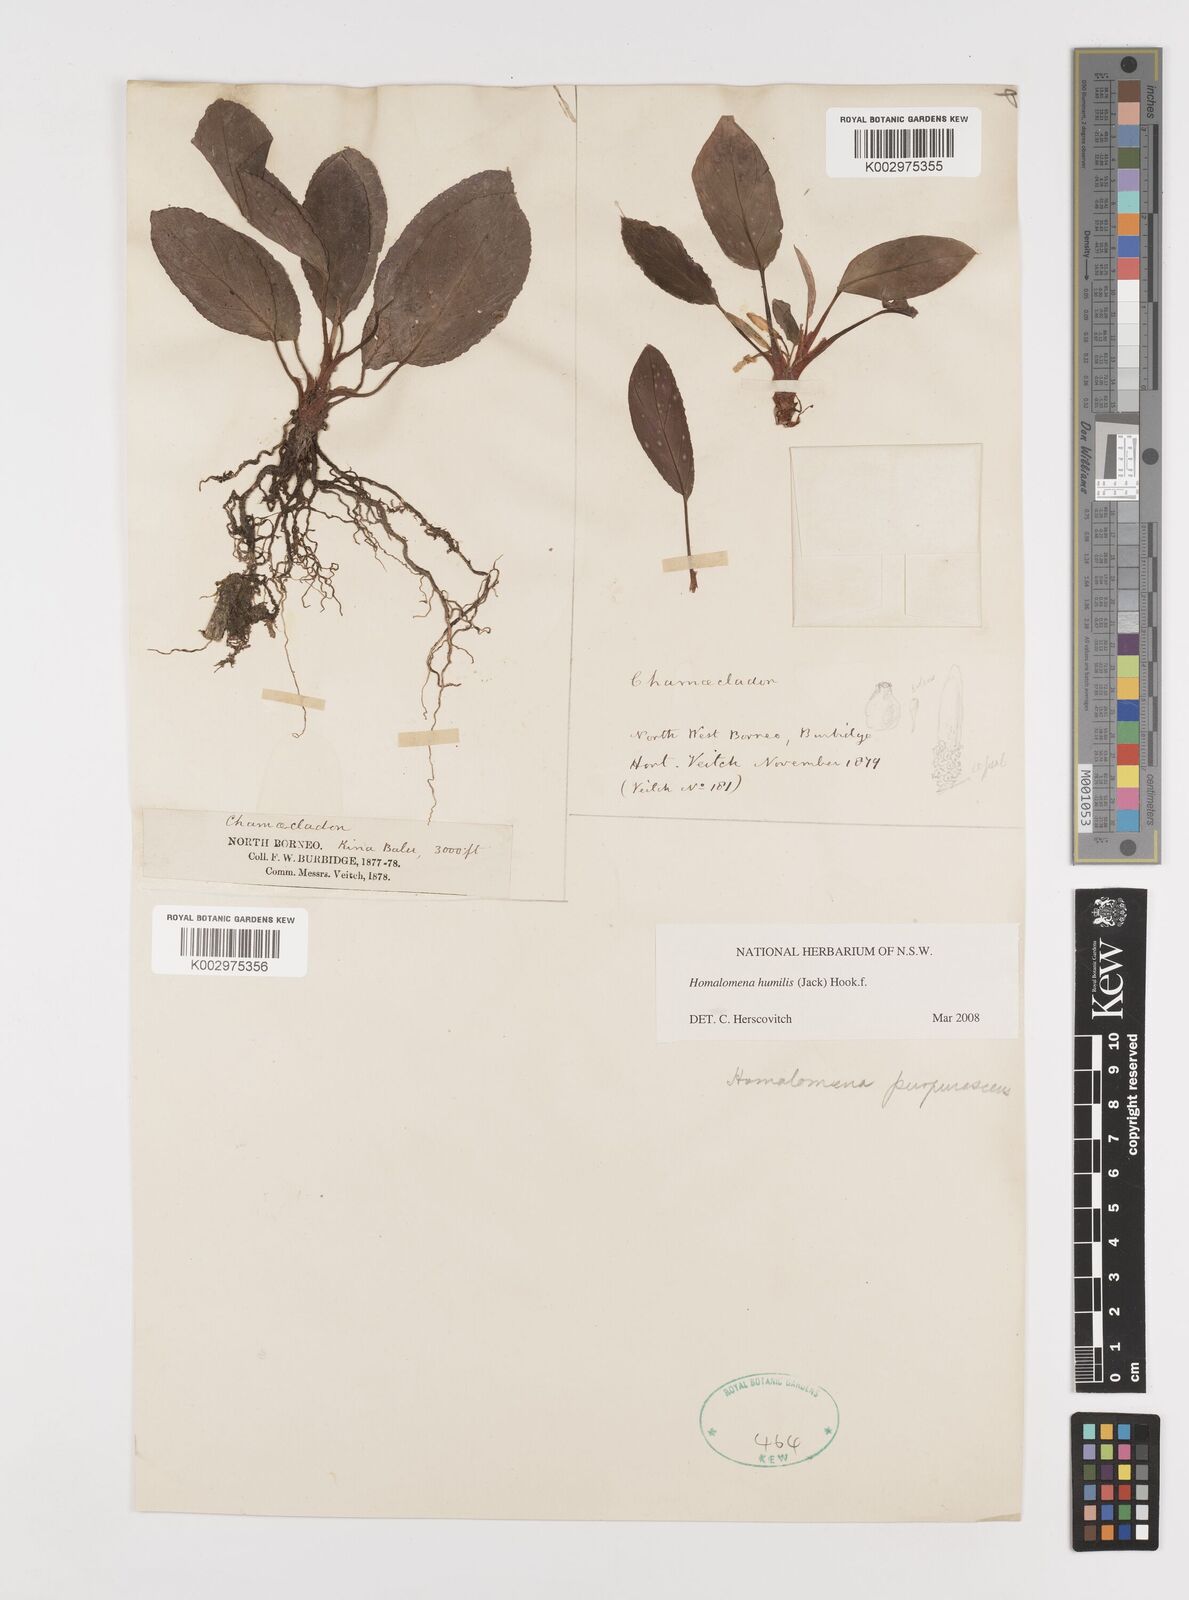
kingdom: Plantae
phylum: Tracheophyta
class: Liliopsida
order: Alismatales
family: Araceae
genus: Homalomena
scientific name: Homalomena humilis
